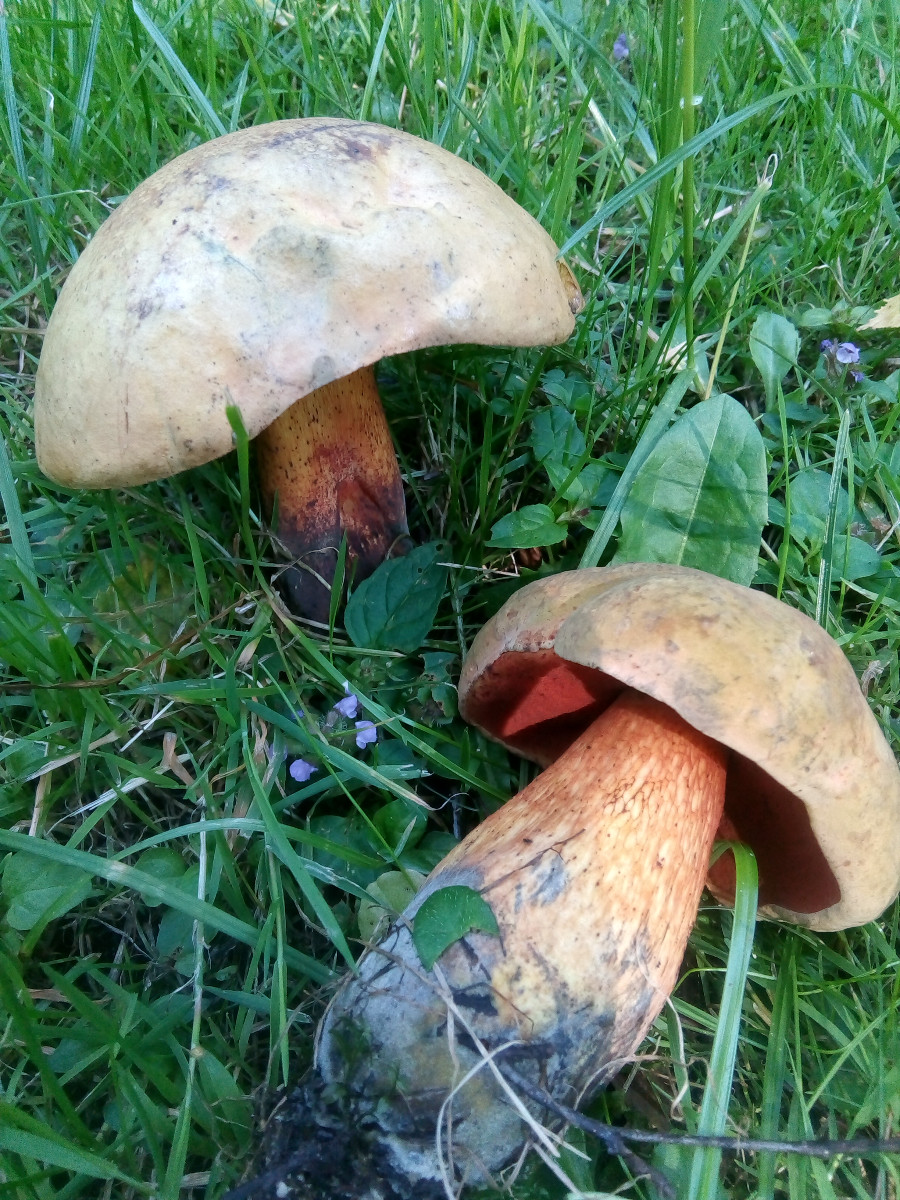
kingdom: Fungi
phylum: Basidiomycota
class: Agaricomycetes
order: Boletales
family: Boletaceae
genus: Suillellus
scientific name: Suillellus luridus
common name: netstokket indigorørhat
